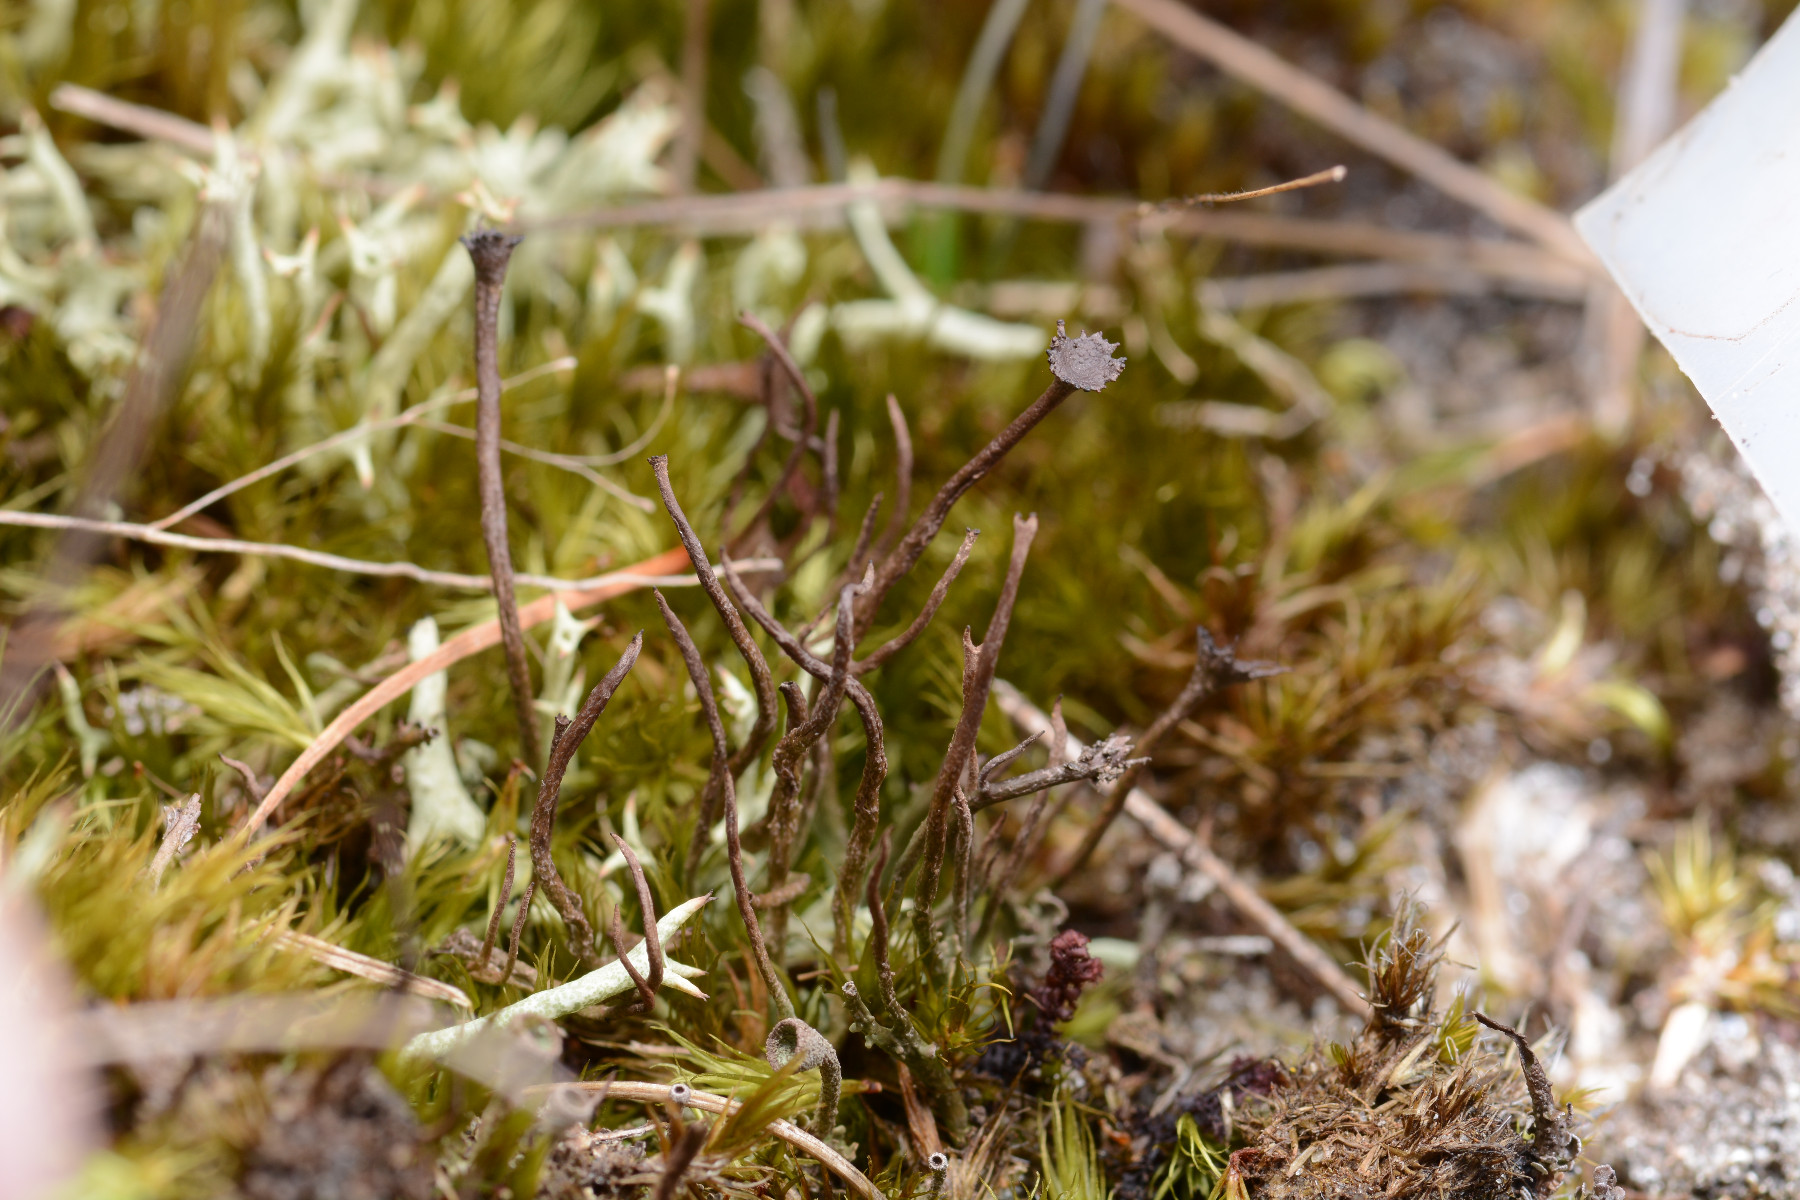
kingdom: Fungi
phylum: Ascomycota
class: Lecanoromycetes
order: Lecanorales
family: Cladoniaceae
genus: Cladonia
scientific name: Cladonia gracilis
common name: slank bægerlav
